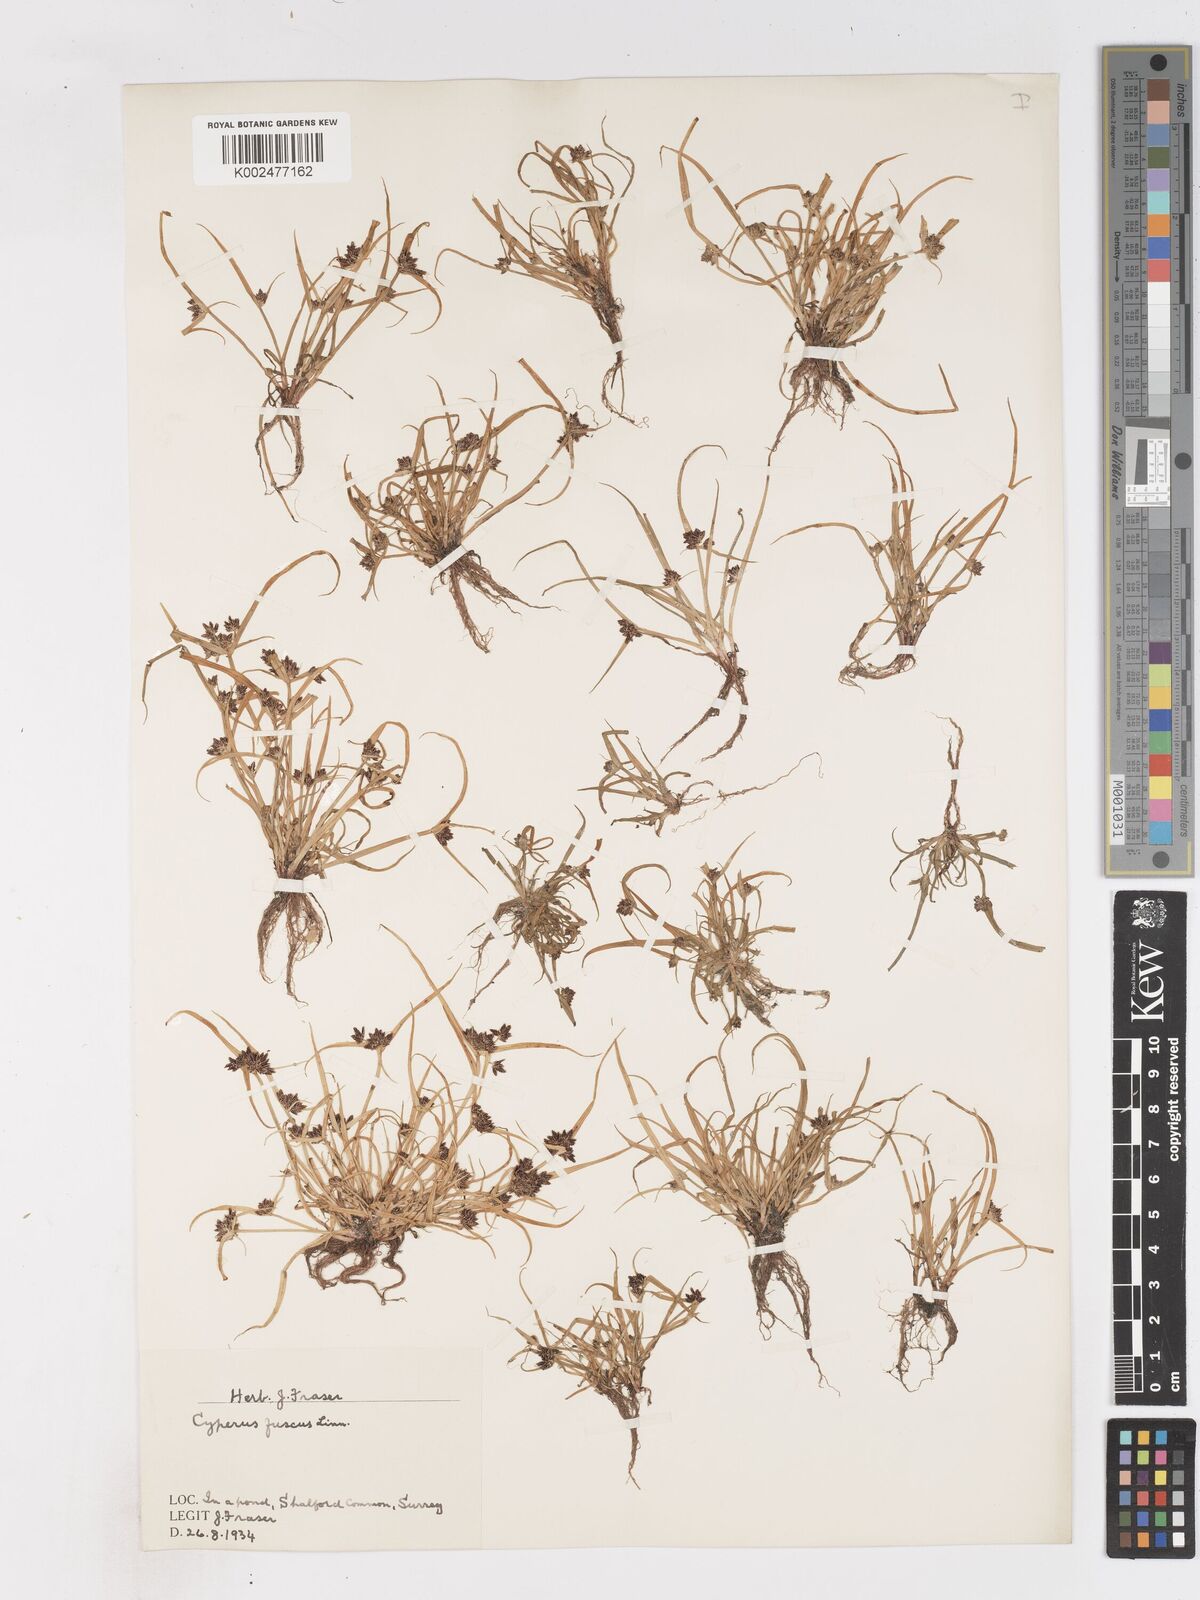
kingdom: Plantae
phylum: Tracheophyta
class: Liliopsida
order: Poales
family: Cyperaceae
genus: Cyperus
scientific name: Cyperus fuscus
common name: Brown galingale
